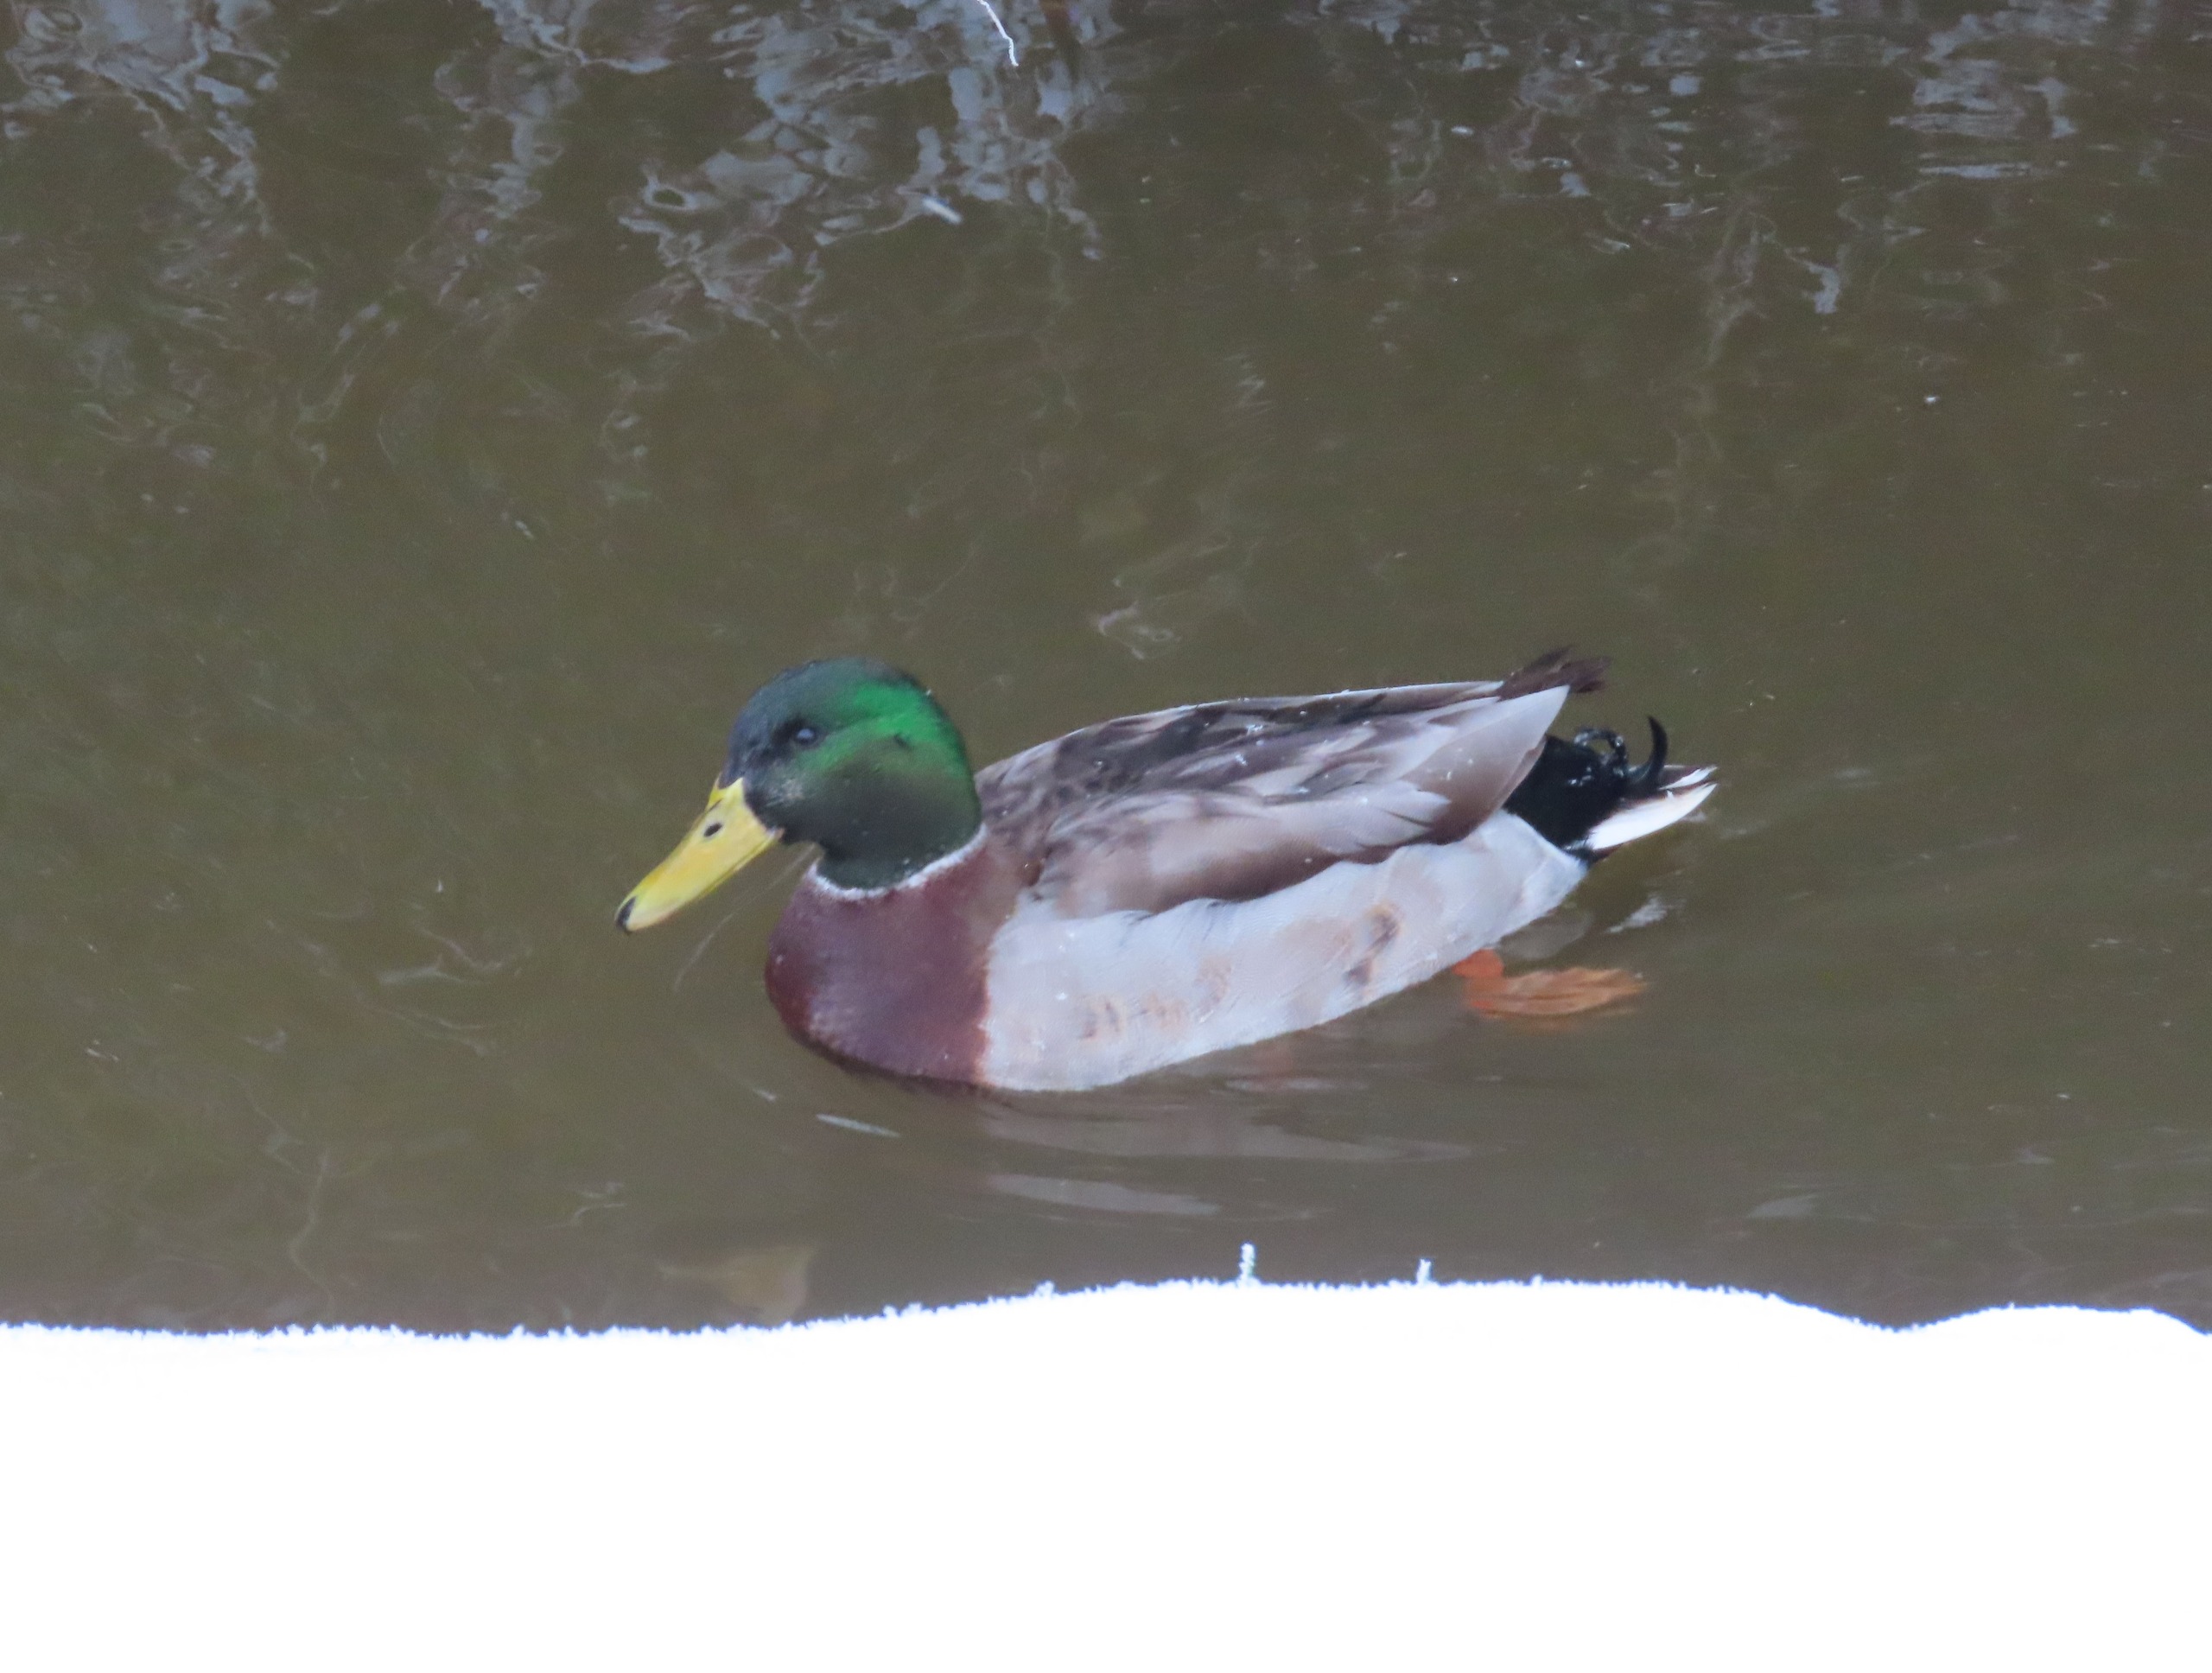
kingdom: Animalia
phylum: Chordata
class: Aves
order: Anseriformes
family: Anatidae
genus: Anas
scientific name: Anas platyrhynchos
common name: Gråand
